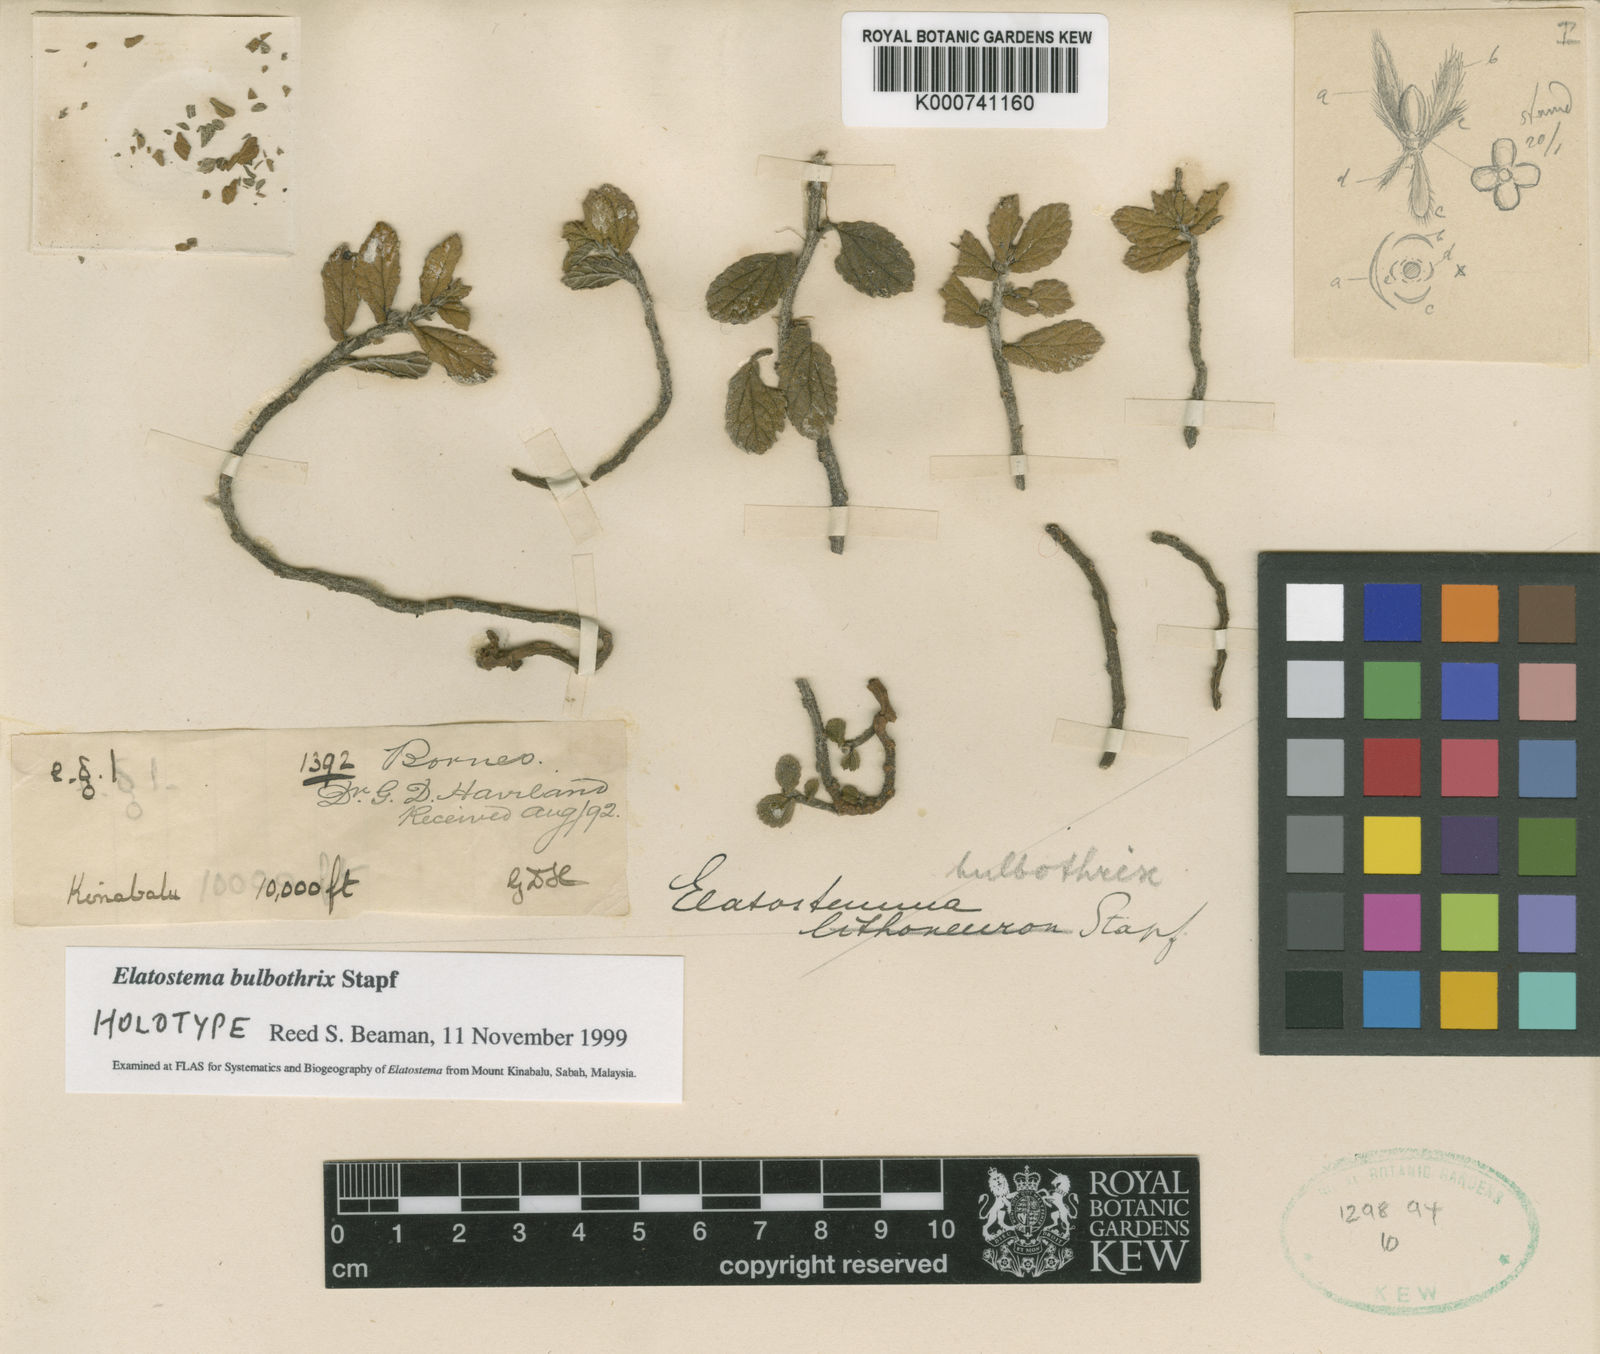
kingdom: Plantae
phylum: Tracheophyta
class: Magnoliopsida
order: Rosales
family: Urticaceae
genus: Elatostema
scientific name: Elatostema bulbothrix
